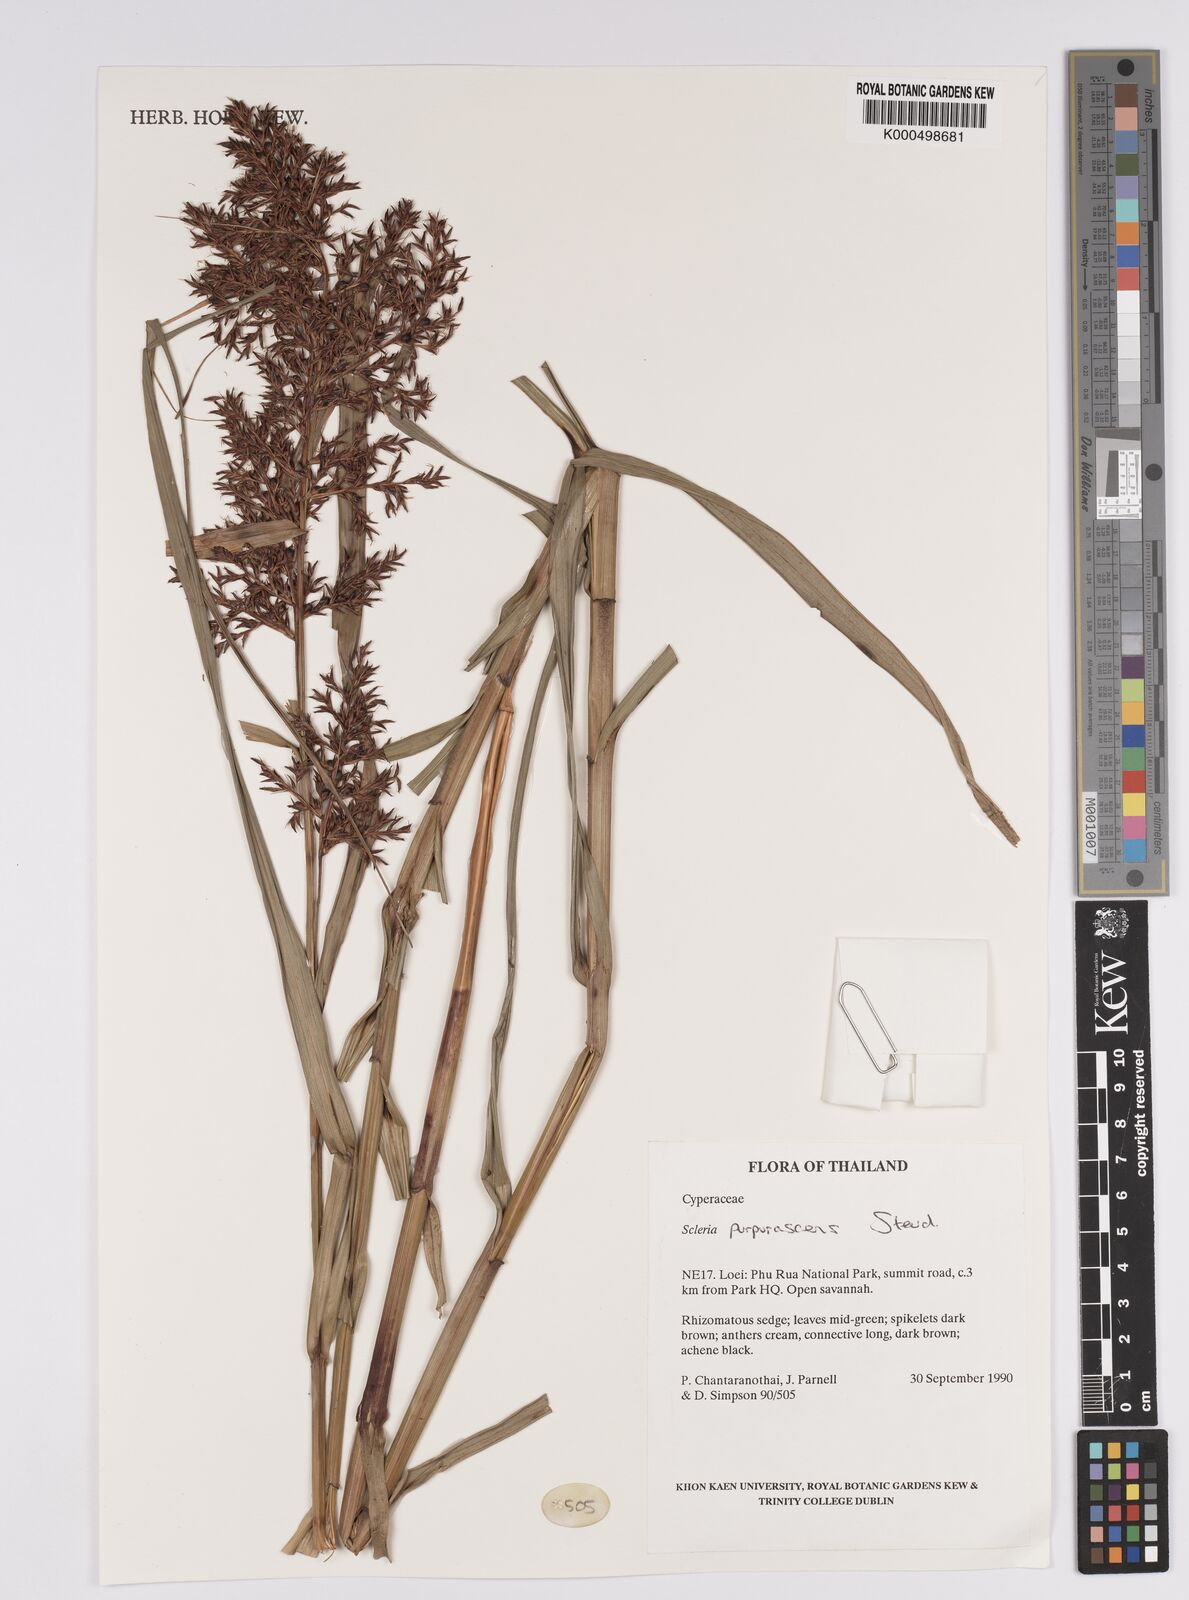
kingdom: Plantae
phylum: Tracheophyta
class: Liliopsida
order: Poales
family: Cyperaceae
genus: Scleria
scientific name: Scleria purpurascens
